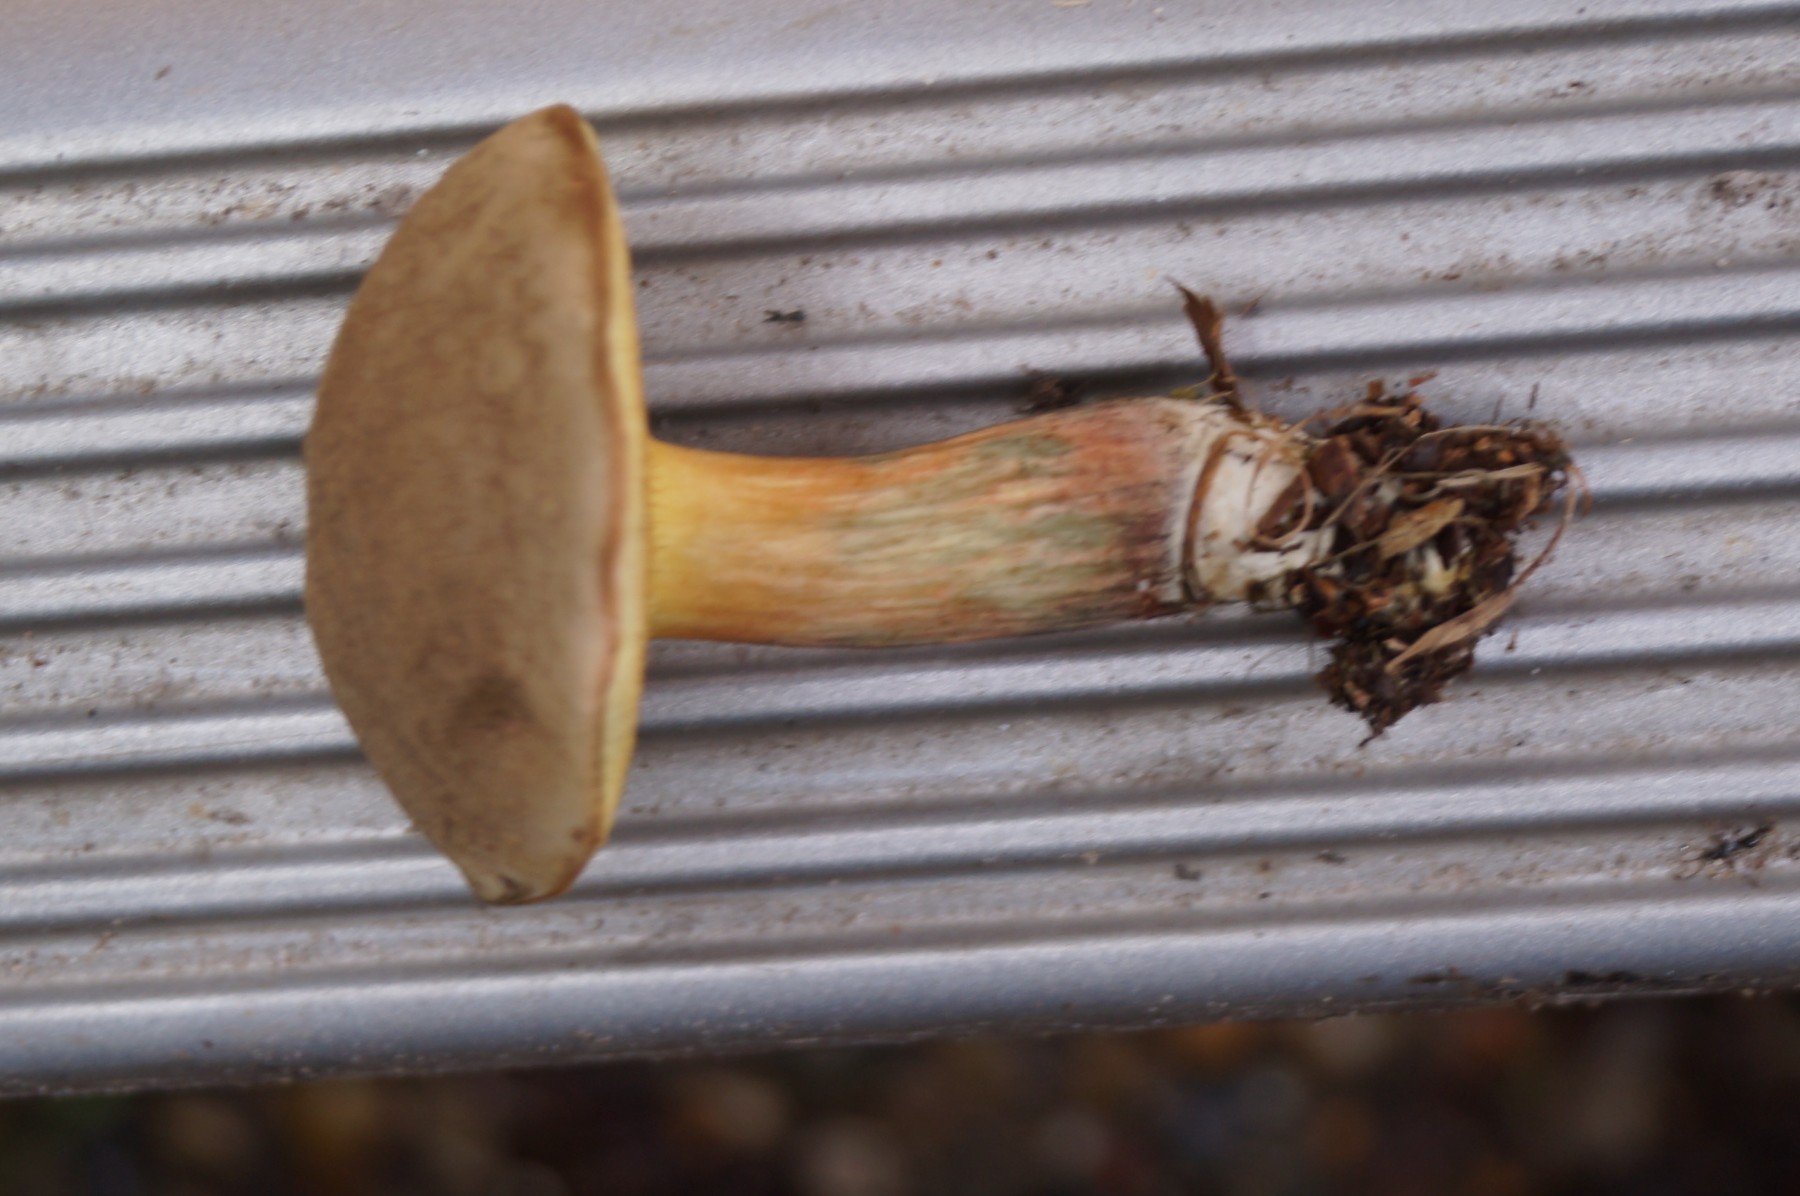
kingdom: Fungi
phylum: Basidiomycota
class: Agaricomycetes
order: Boletales
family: Boletaceae
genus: Xerocomus
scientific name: Xerocomus subtomentosus
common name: filtet rørhat
